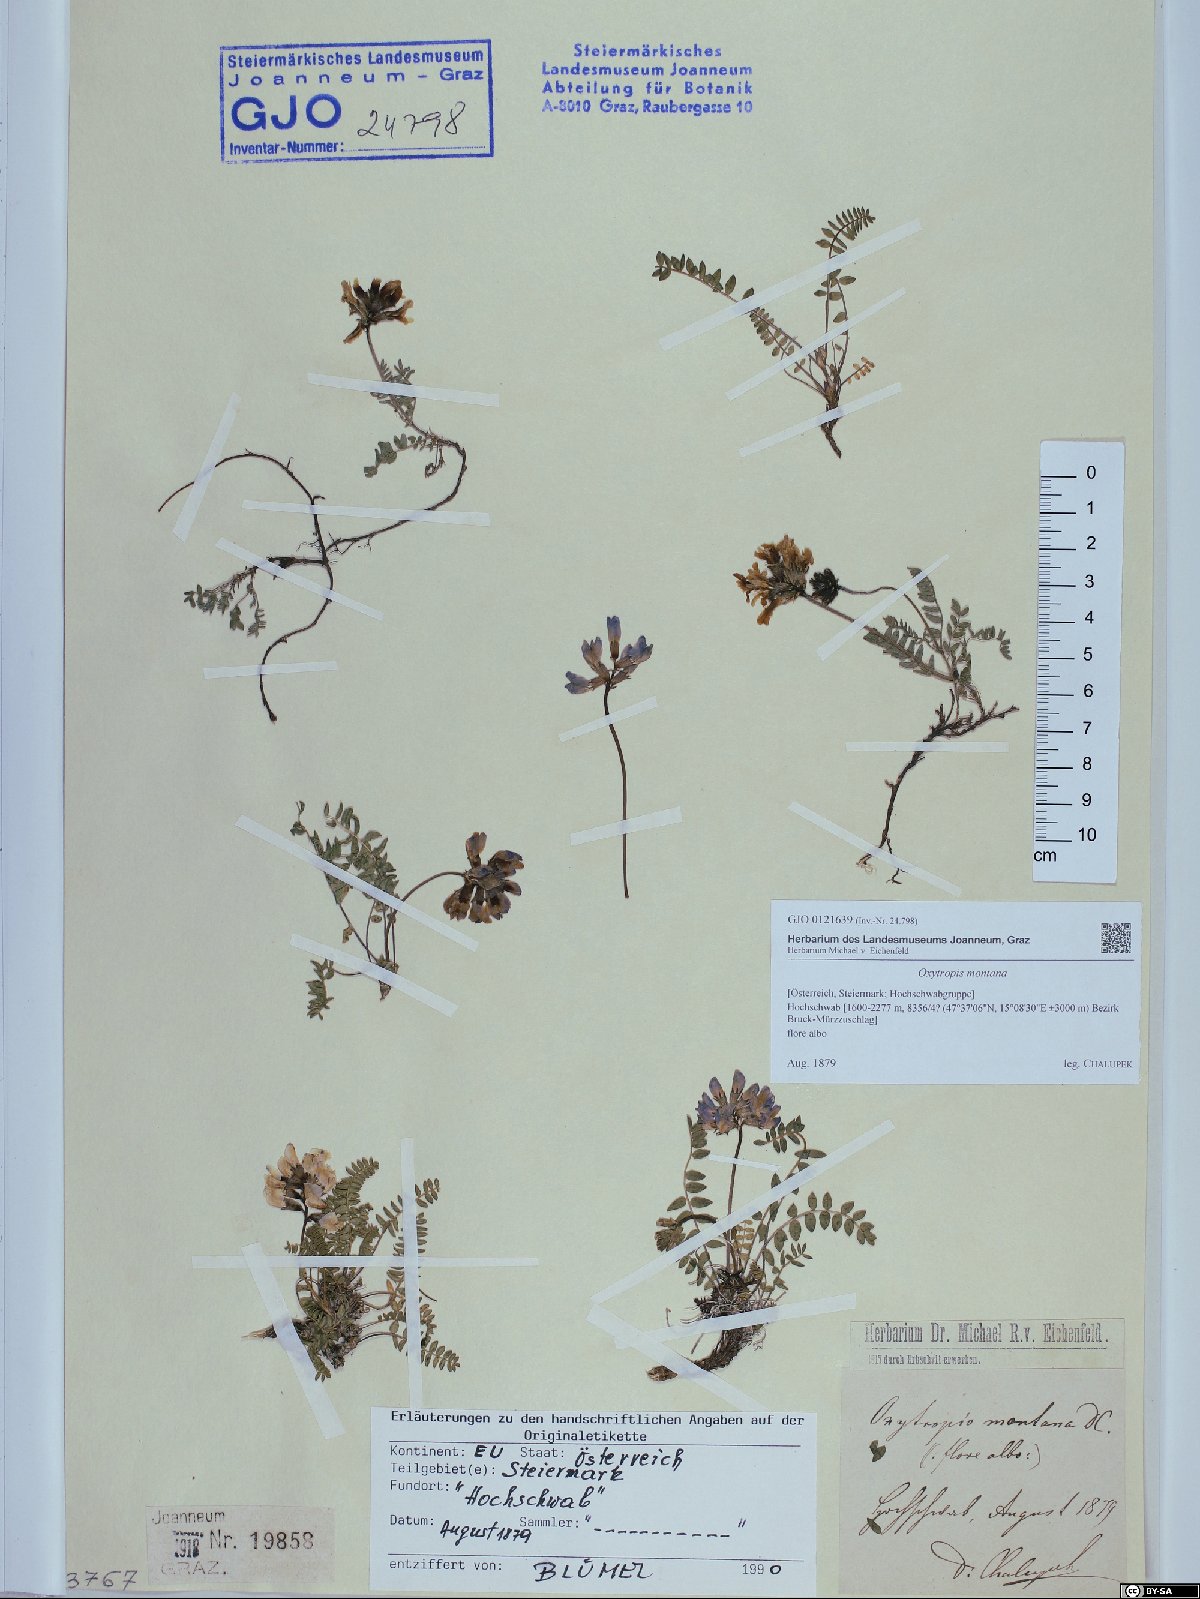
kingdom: Plantae
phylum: Tracheophyta
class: Magnoliopsida
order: Fabales
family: Fabaceae
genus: Oxytropis
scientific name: Oxytropis montana
